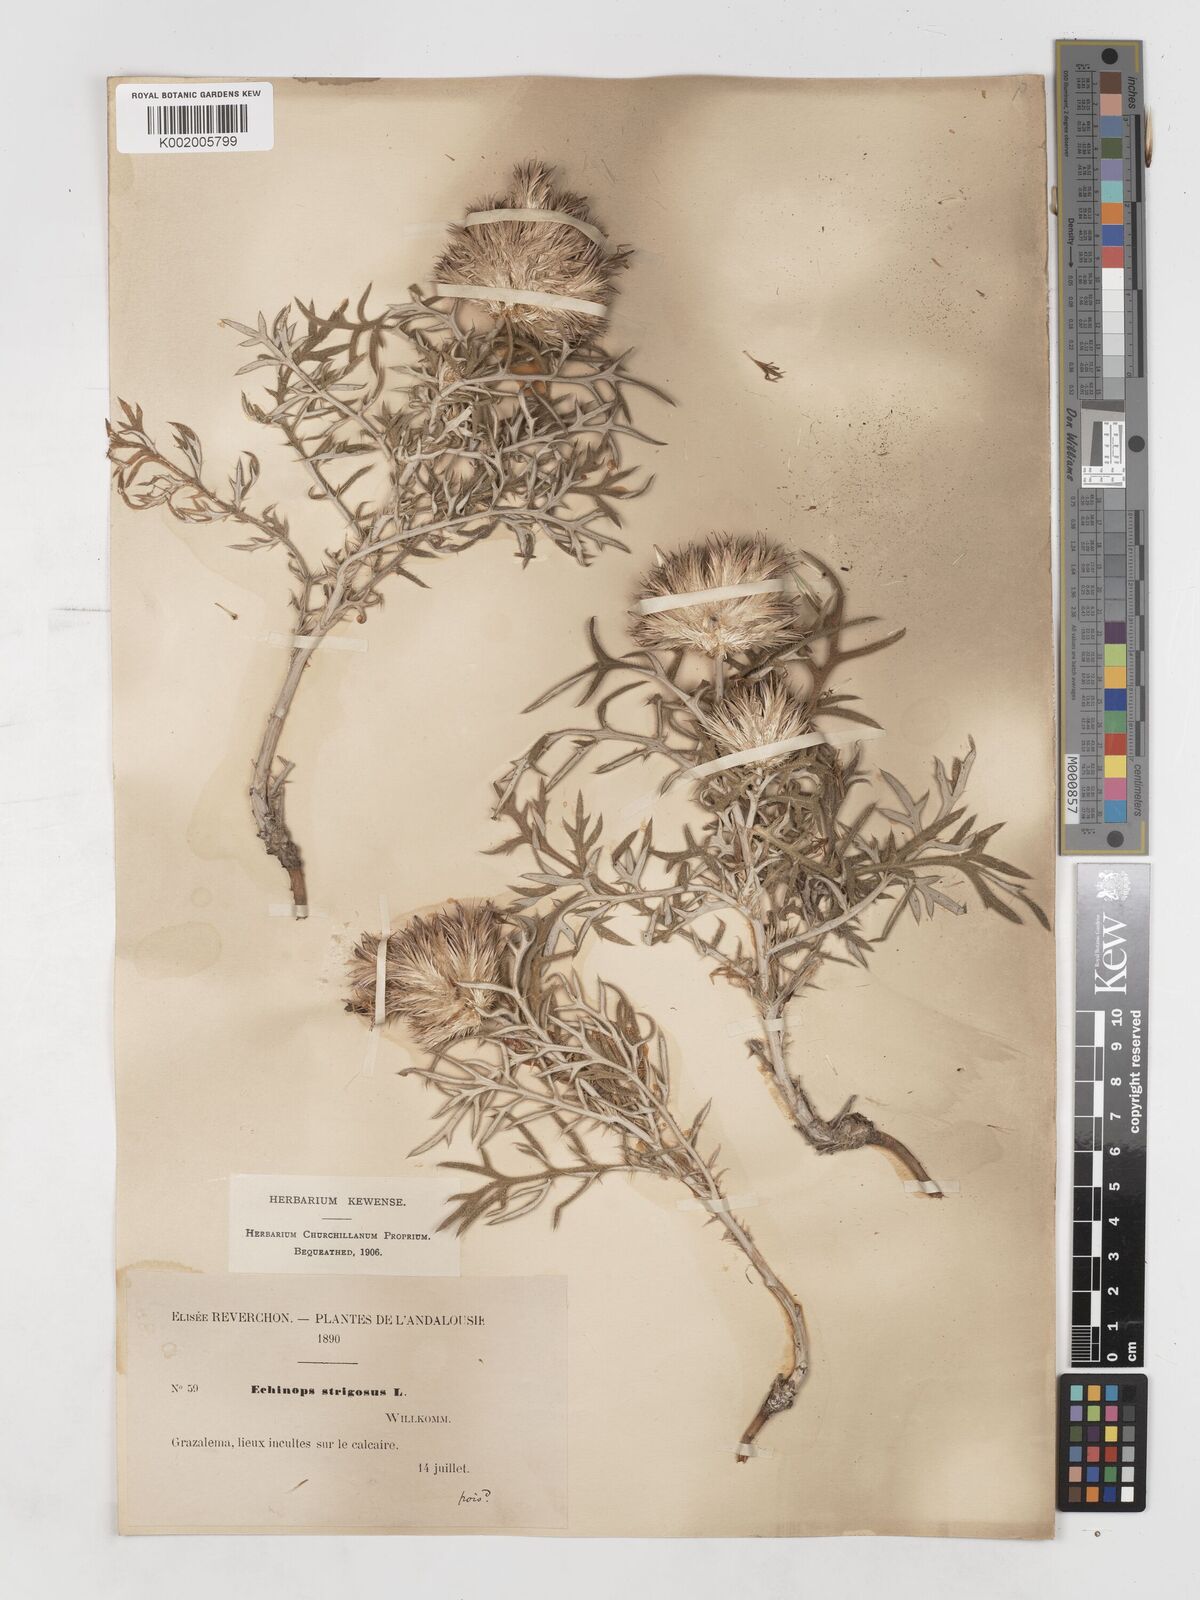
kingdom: Plantae
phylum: Tracheophyta
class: Magnoliopsida
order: Asterales
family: Asteraceae
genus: Echinops
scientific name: Echinops strigosus
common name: Rough-leaf globe thistle
